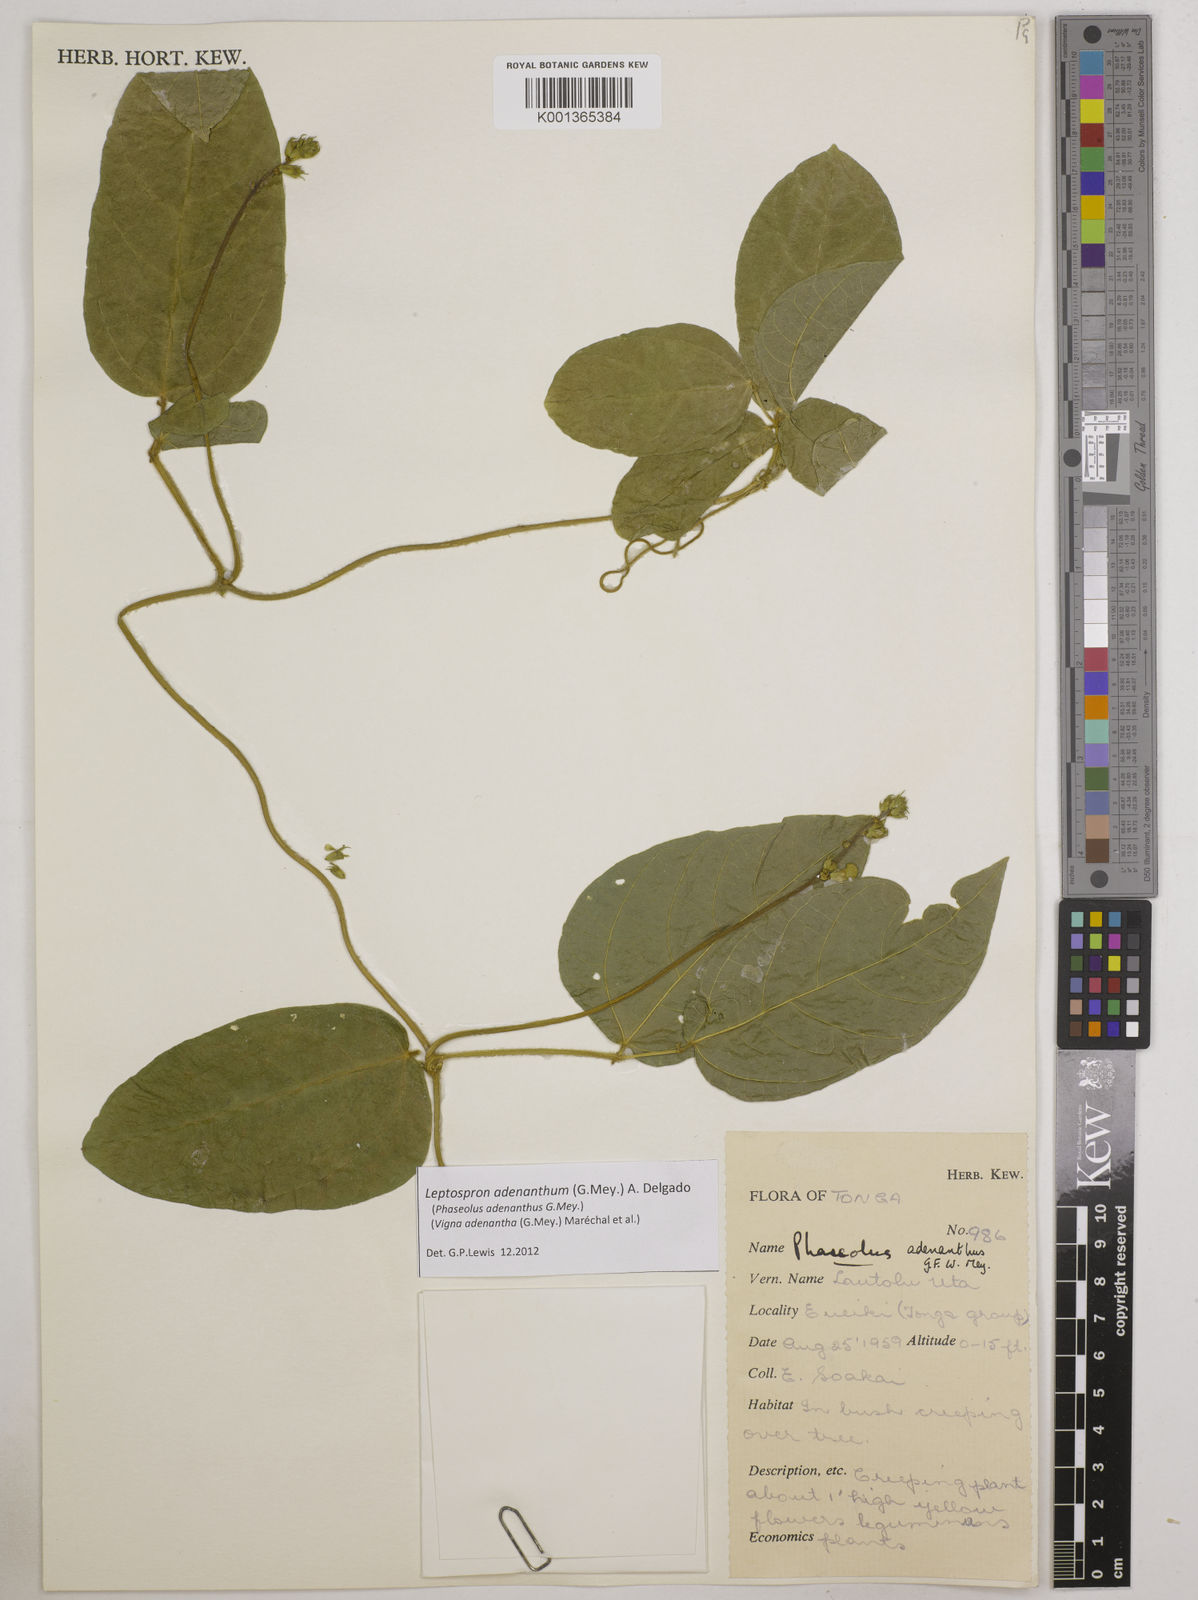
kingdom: Plantae
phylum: Tracheophyta
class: Magnoliopsida
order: Fabales
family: Fabaceae
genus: Leptospron
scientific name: Leptospron adenanthum
